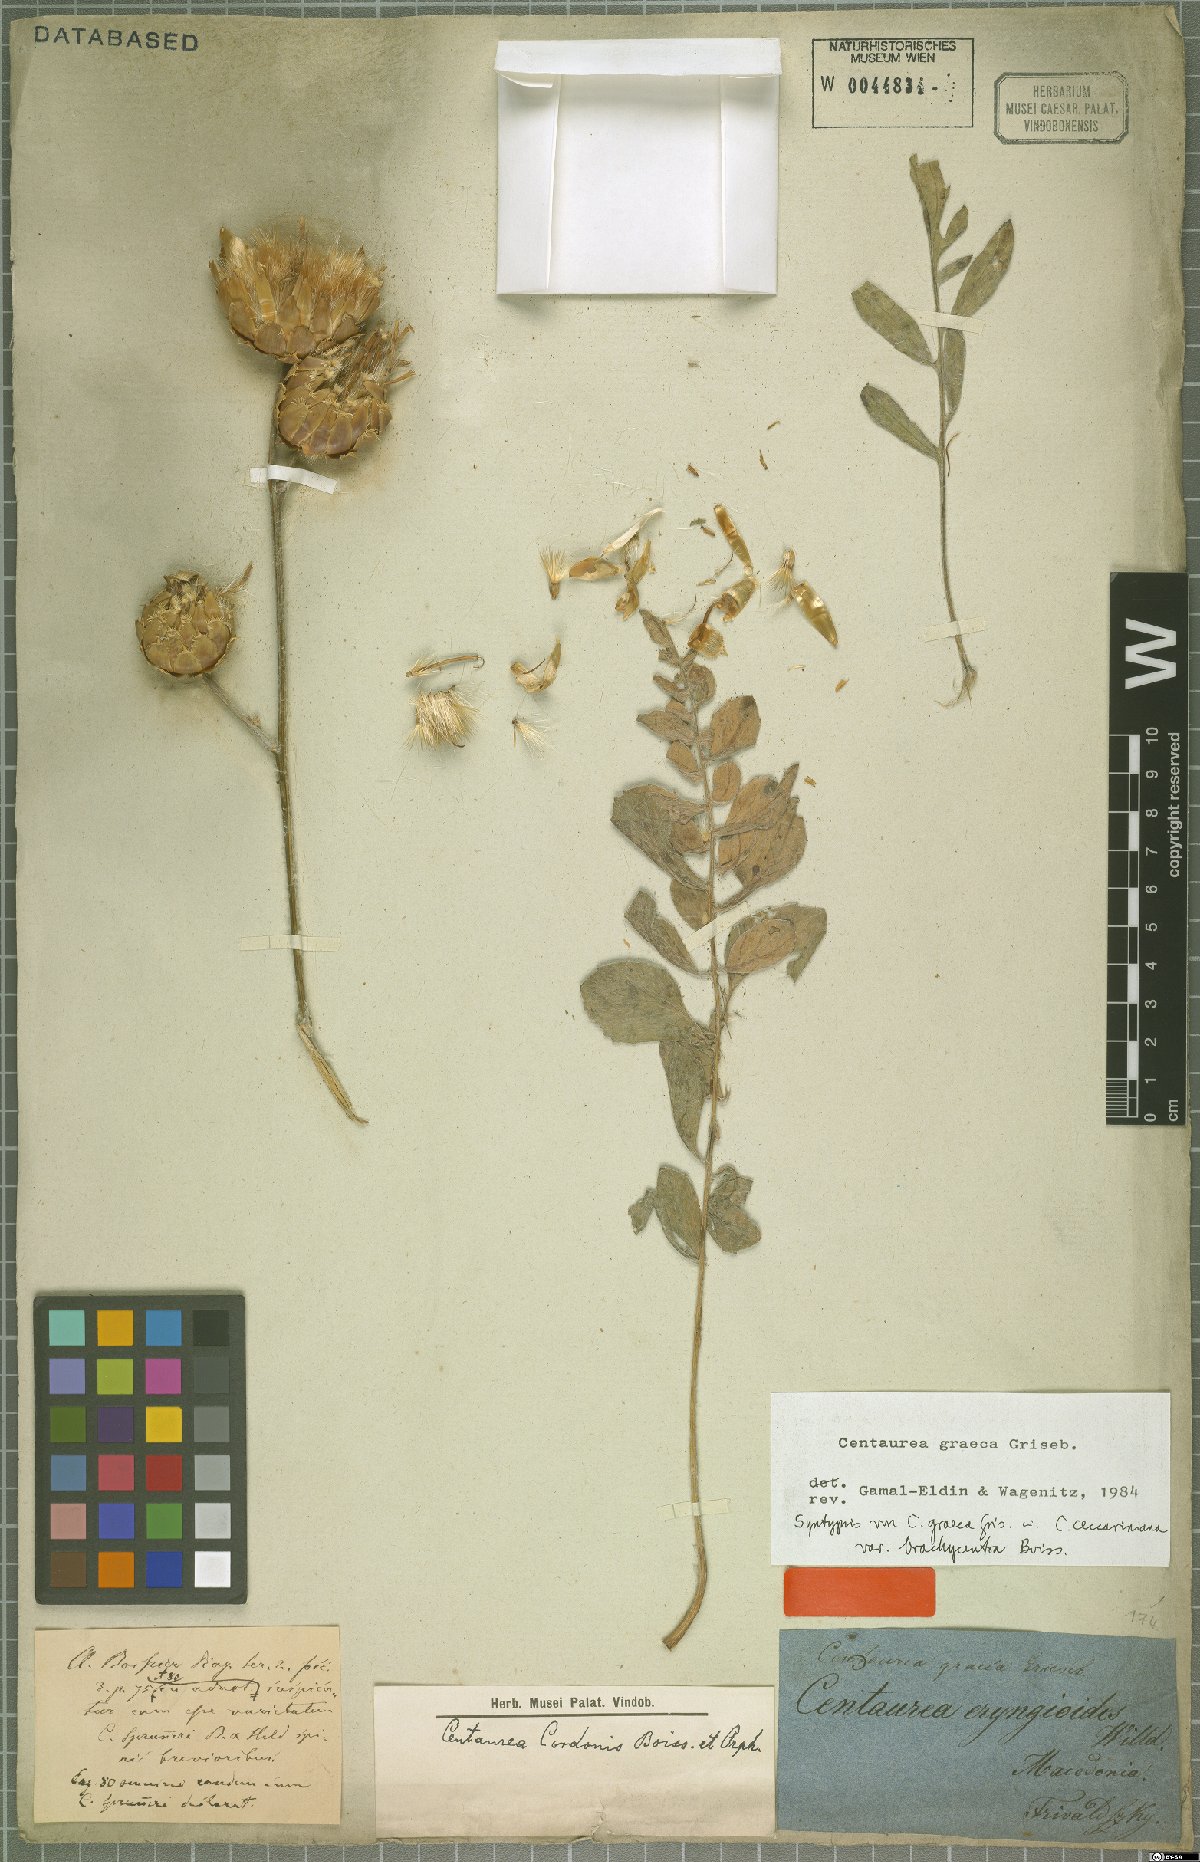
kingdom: Plantae
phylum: Tracheophyta
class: Magnoliopsida
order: Asterales
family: Asteraceae
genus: Centaurea
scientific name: Centaurea graeca
